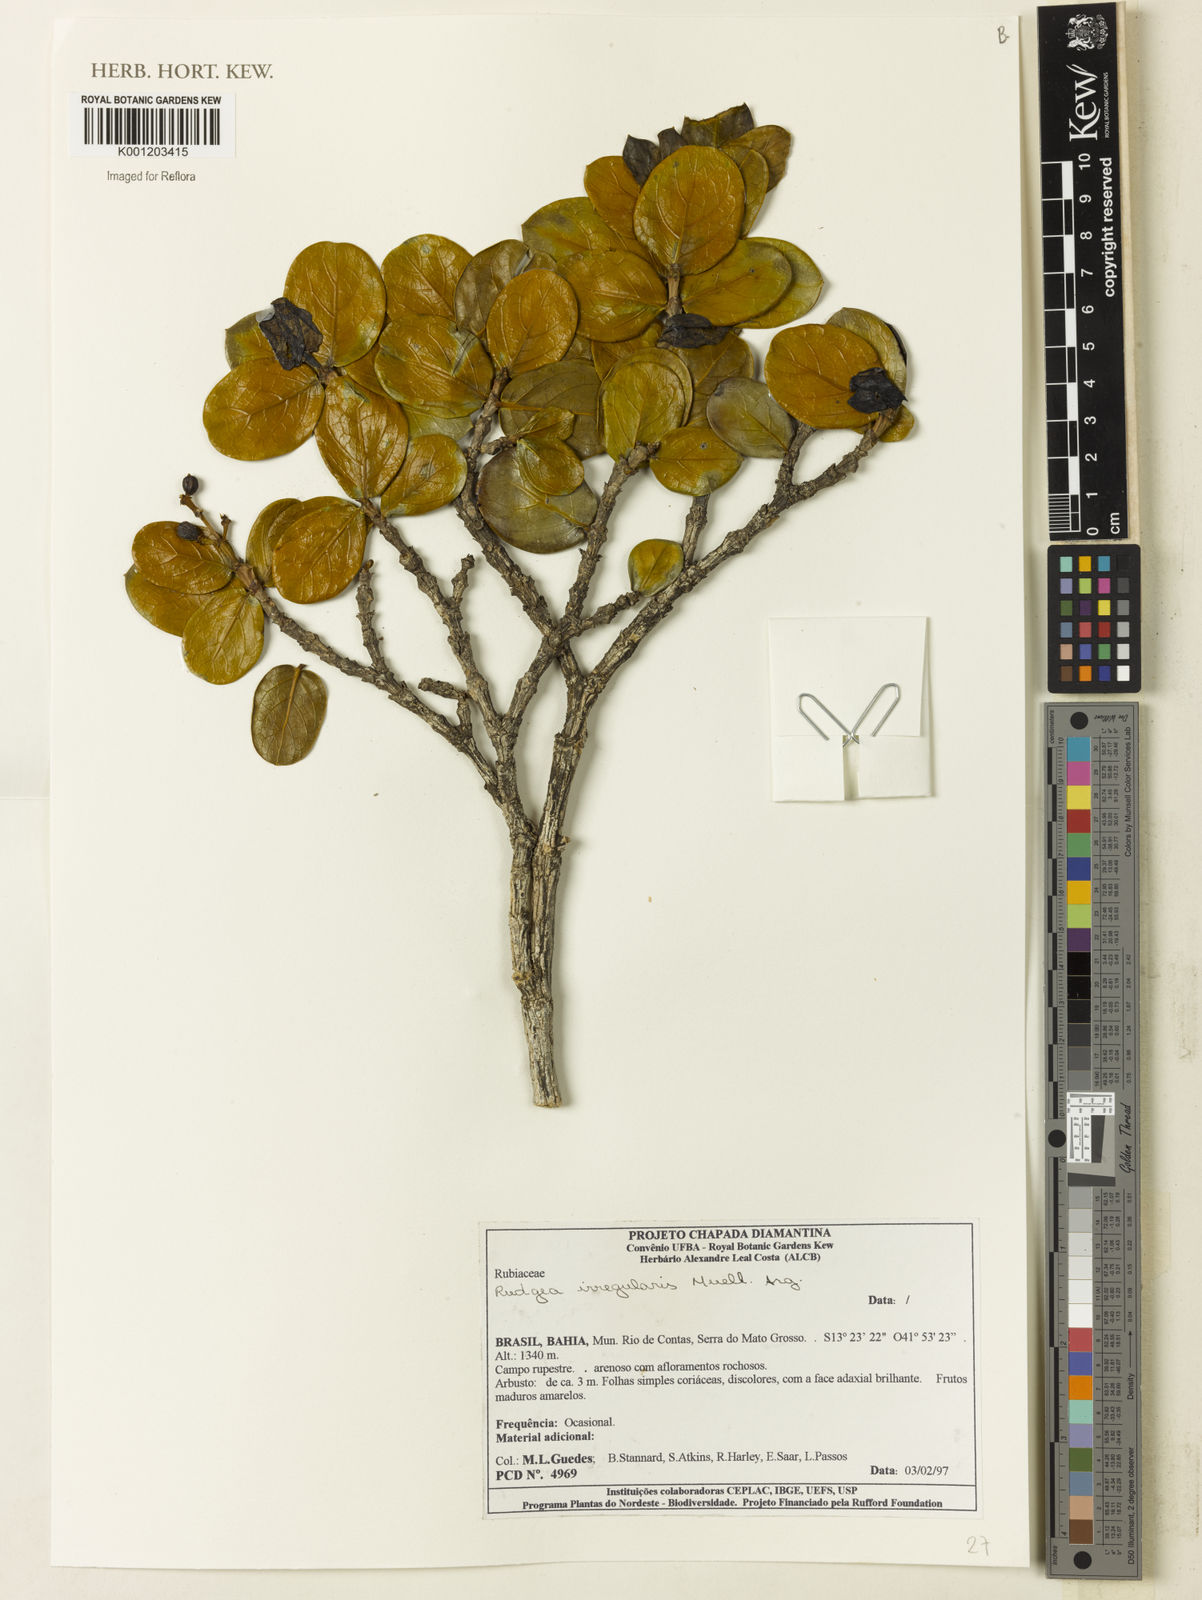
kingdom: Plantae
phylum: Tracheophyta
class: Magnoliopsida
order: Gentianales
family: Rubiaceae
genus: Rudgea
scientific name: Rudgea
